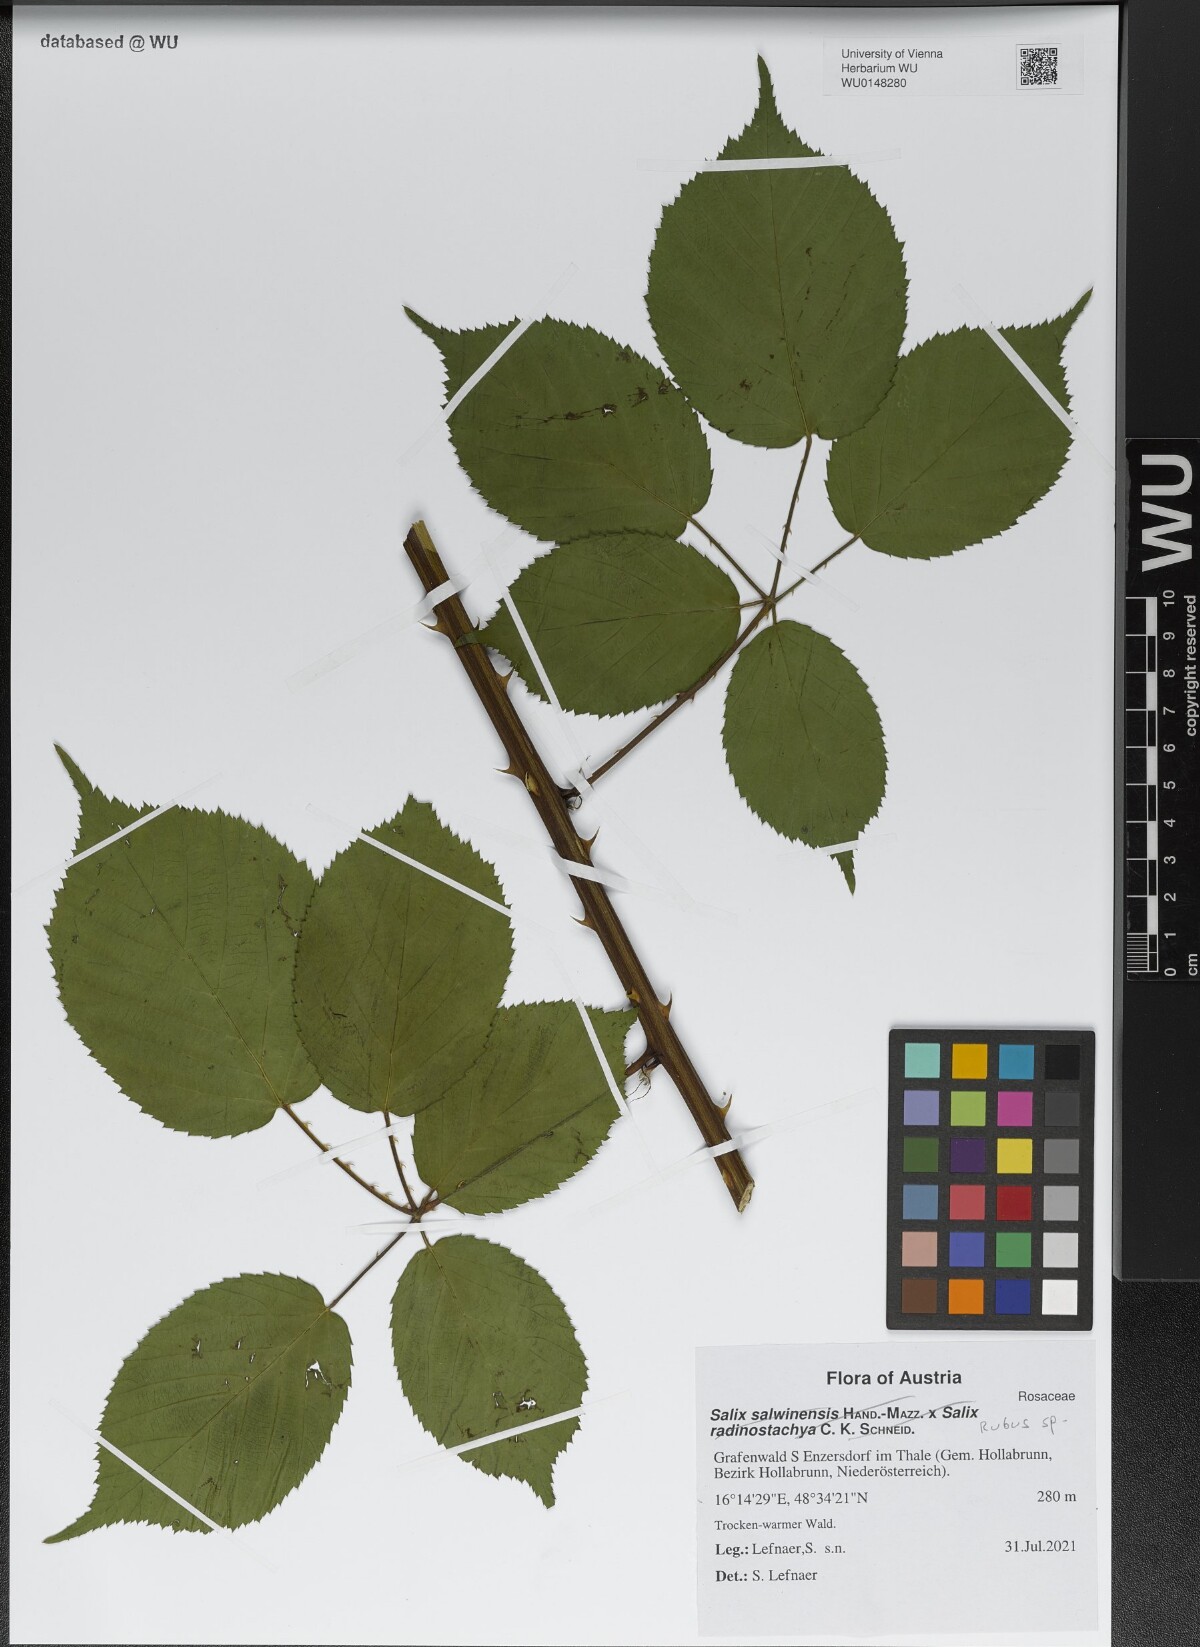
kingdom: Plantae
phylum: Tracheophyta
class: Magnoliopsida
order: Rosales
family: Rosaceae
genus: Rubus
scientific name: Rubus
